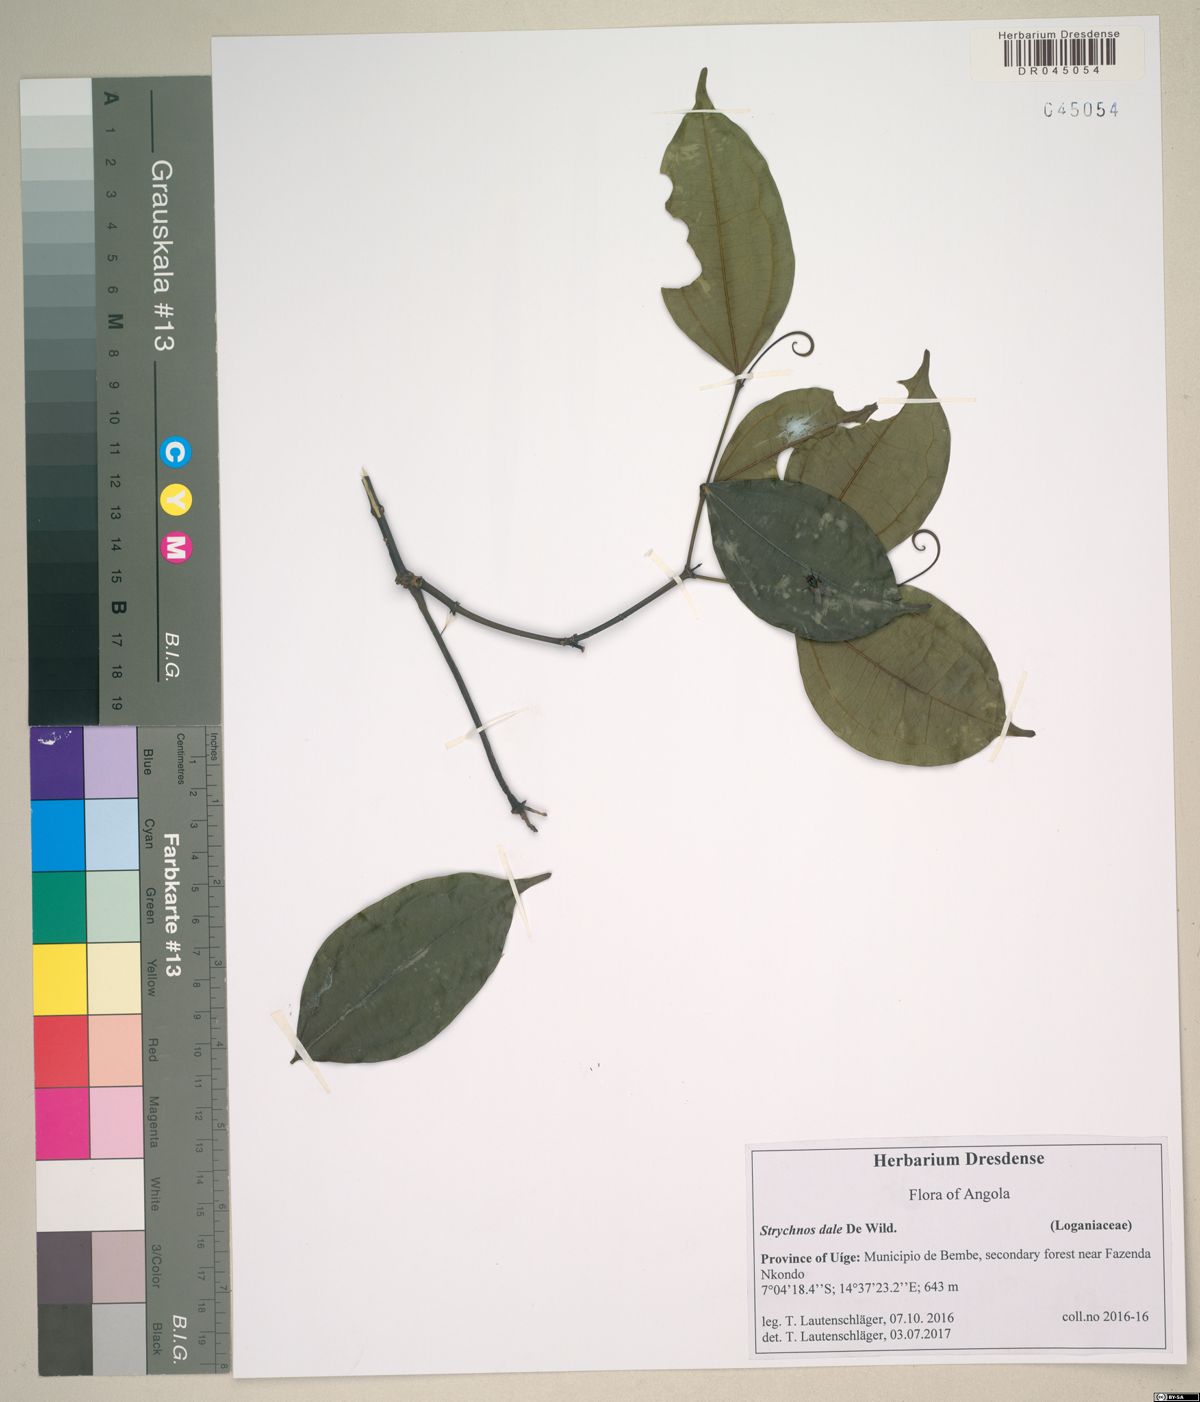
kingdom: Plantae
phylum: Tracheophyta
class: Magnoliopsida
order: Gentianales
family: Loganiaceae
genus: Strychnos
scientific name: Strychnos dale
